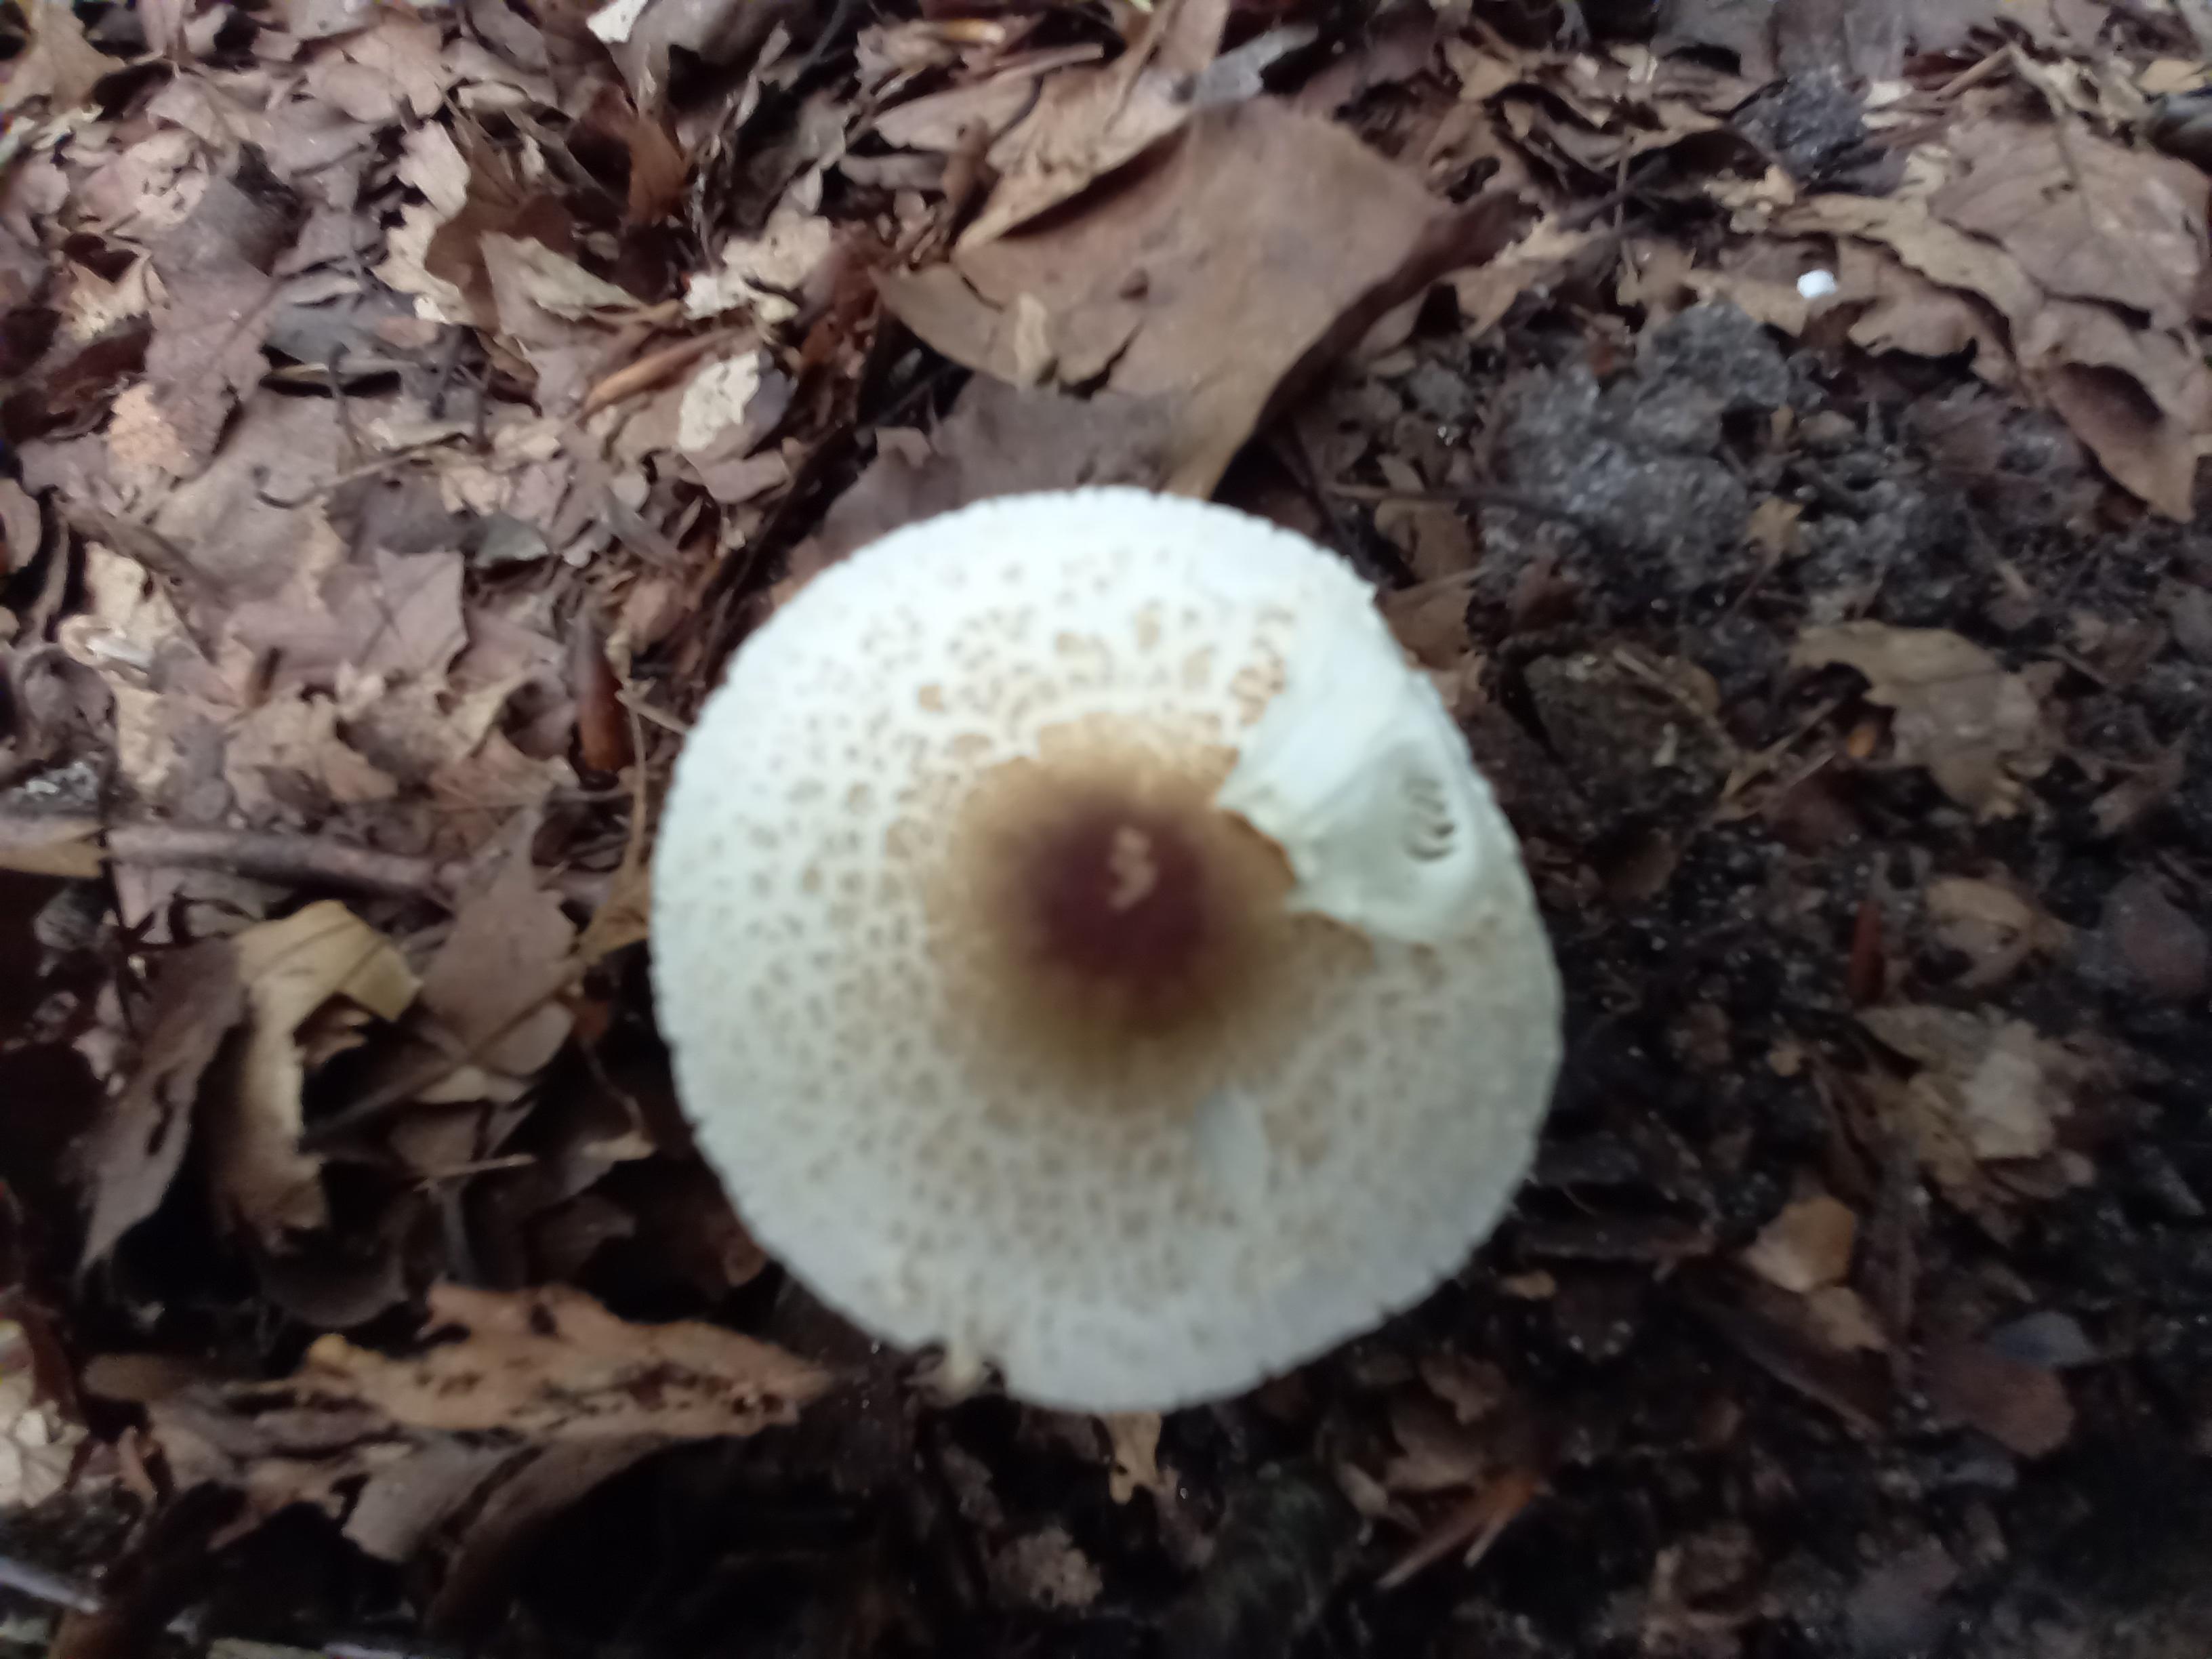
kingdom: Fungi
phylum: Basidiomycota
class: Agaricomycetes
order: Agaricales
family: Agaricaceae
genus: Lepiota
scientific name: Lepiota cristata
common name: stinkende parasolhat
